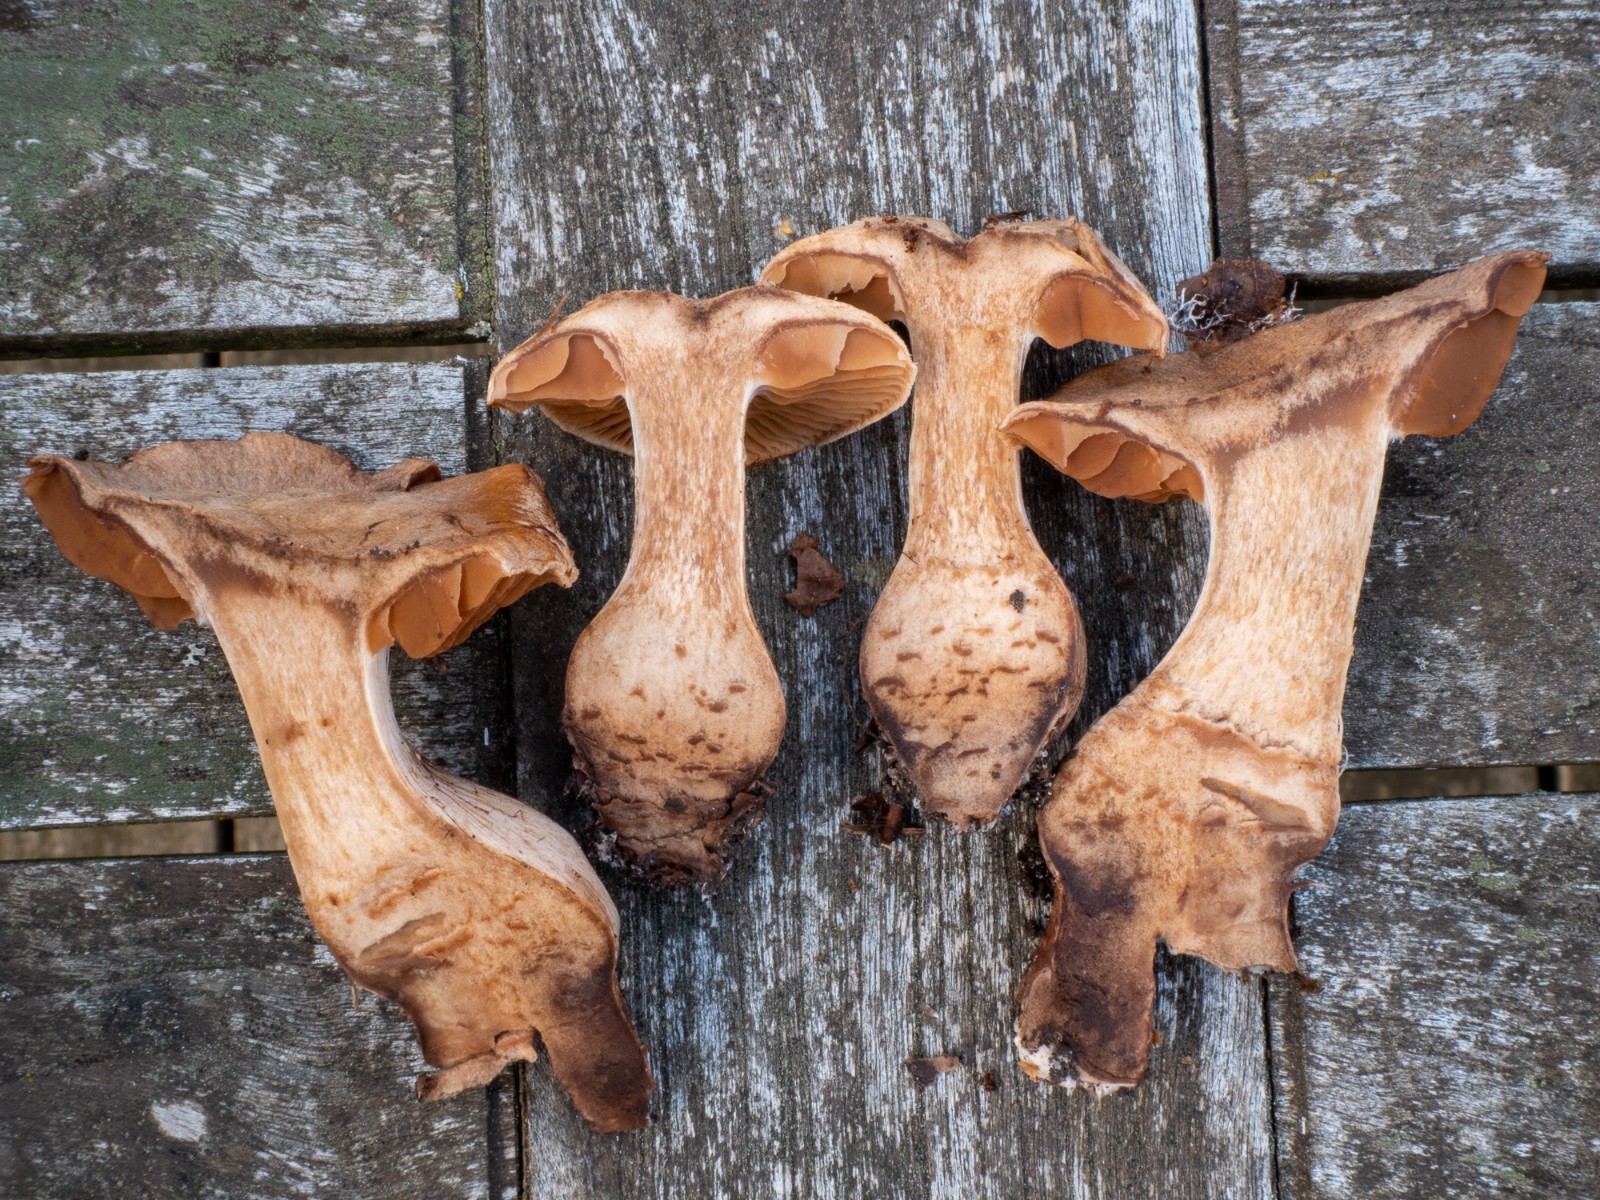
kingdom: Fungi
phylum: Basidiomycota
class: Agaricomycetes
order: Agaricales
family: Cortinariaceae
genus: Cortinarius
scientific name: Cortinarius suillonigrescens
